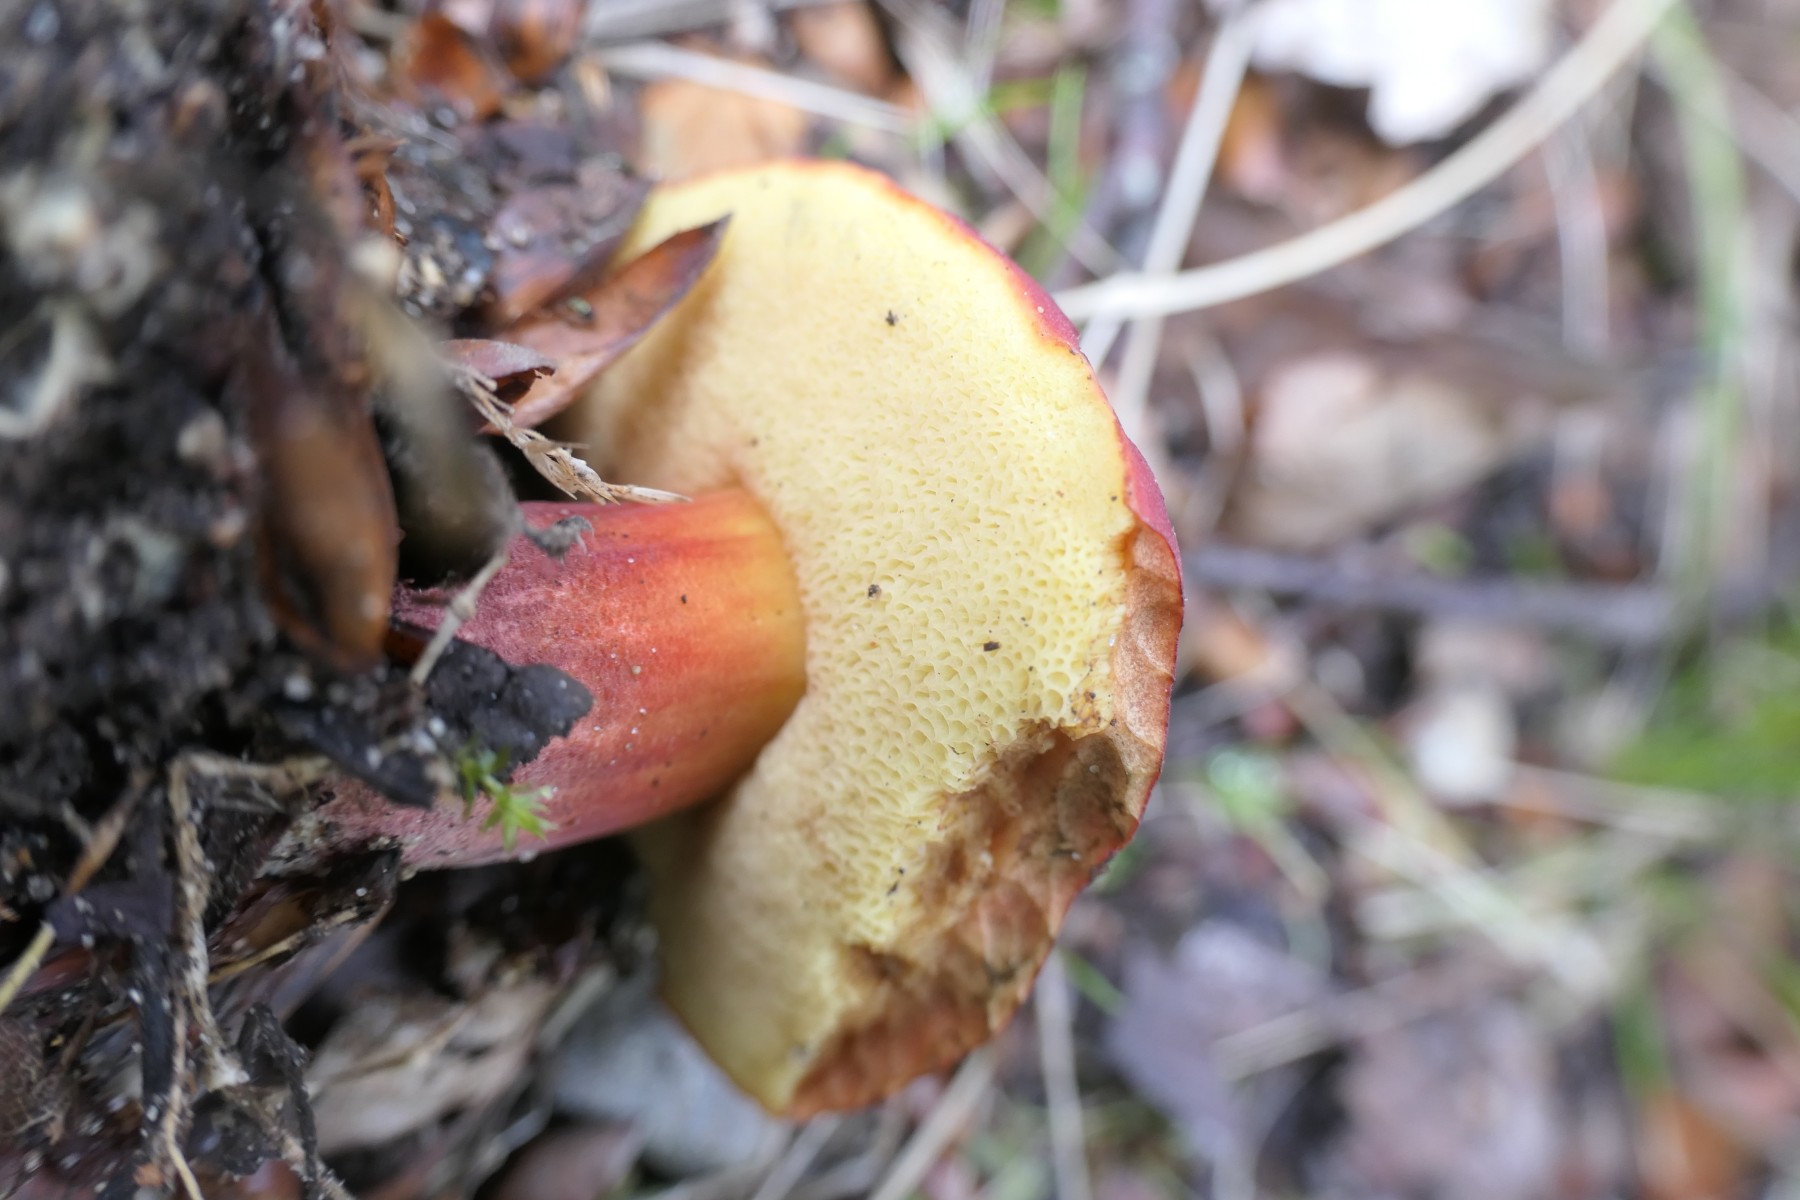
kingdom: Fungi
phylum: Basidiomycota
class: Agaricomycetes
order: Boletales
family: Boletaceae
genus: Hortiboletus
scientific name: Hortiboletus rubellus
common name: blodrød rørhat
